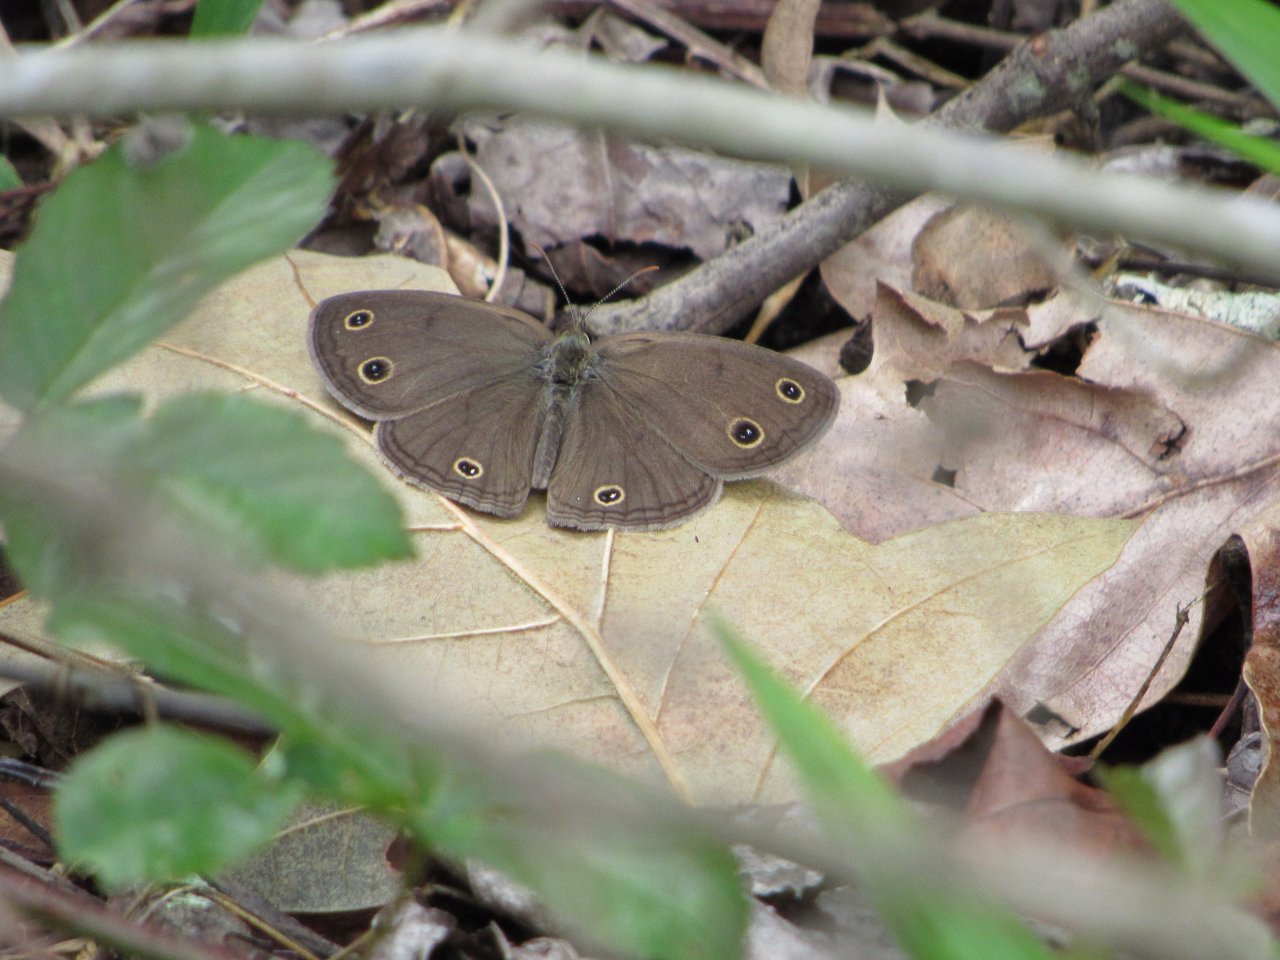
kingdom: Animalia
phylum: Arthropoda
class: Insecta
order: Lepidoptera
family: Nymphalidae
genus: Euptychia
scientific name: Euptychia cymela
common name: Little Wood Satyr
